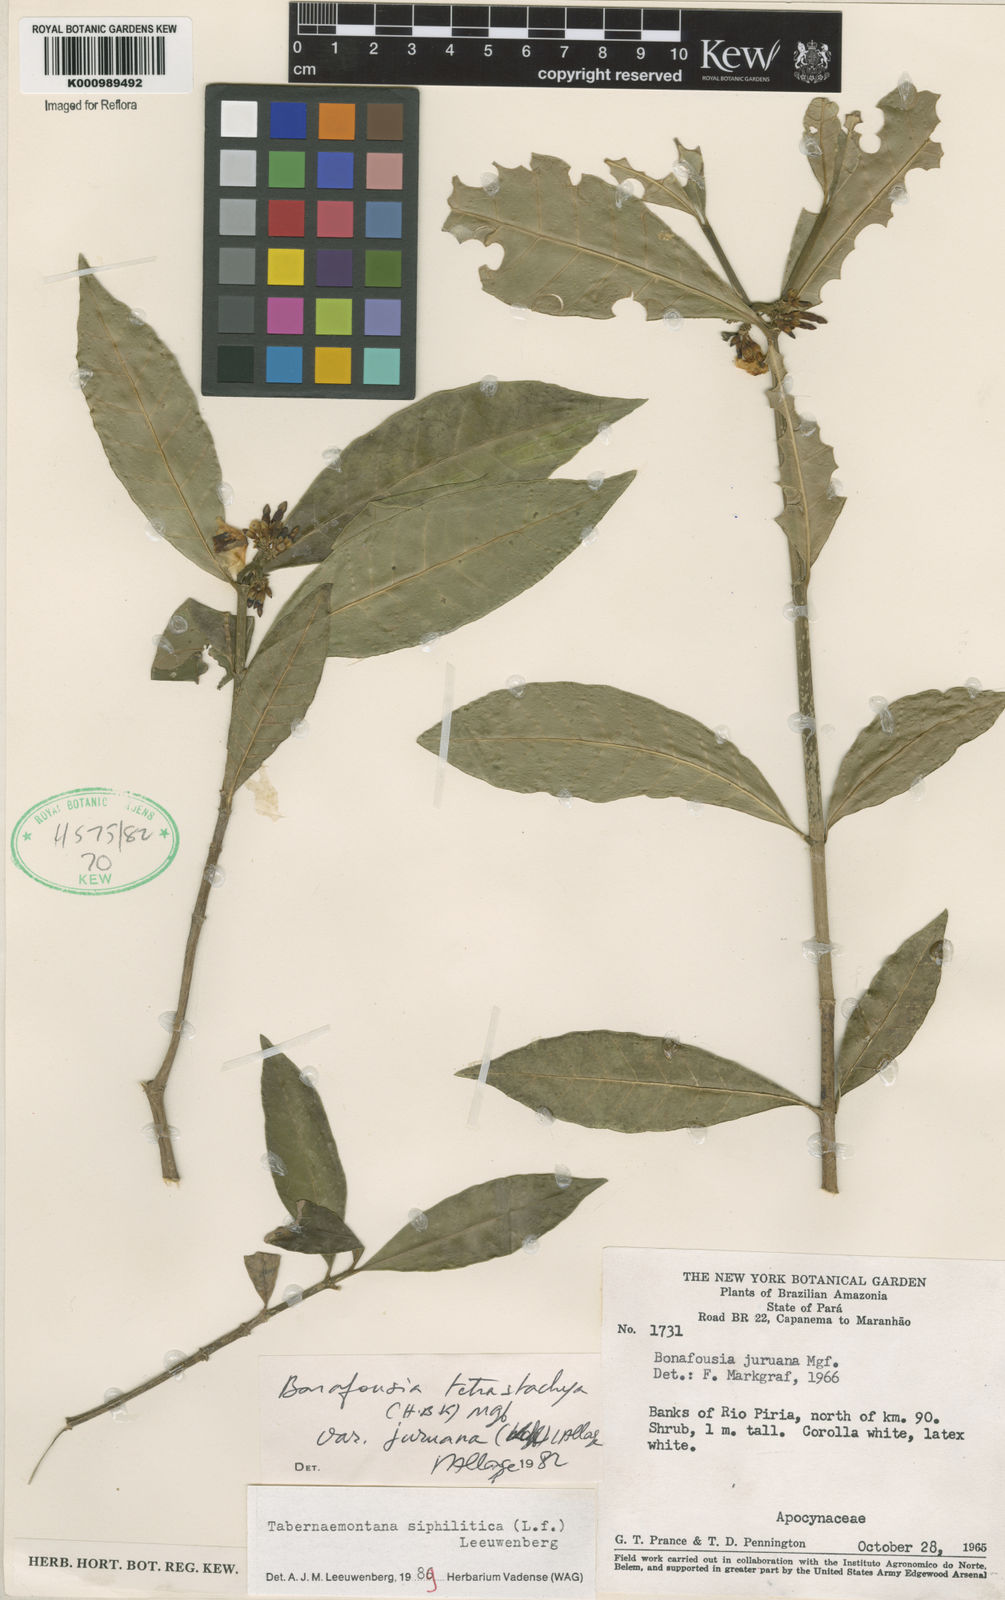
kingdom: Plantae
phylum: Tracheophyta
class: Magnoliopsida
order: Gentianales
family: Apocynaceae
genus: Tabernaemontana
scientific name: Tabernaemontana siphilitica
